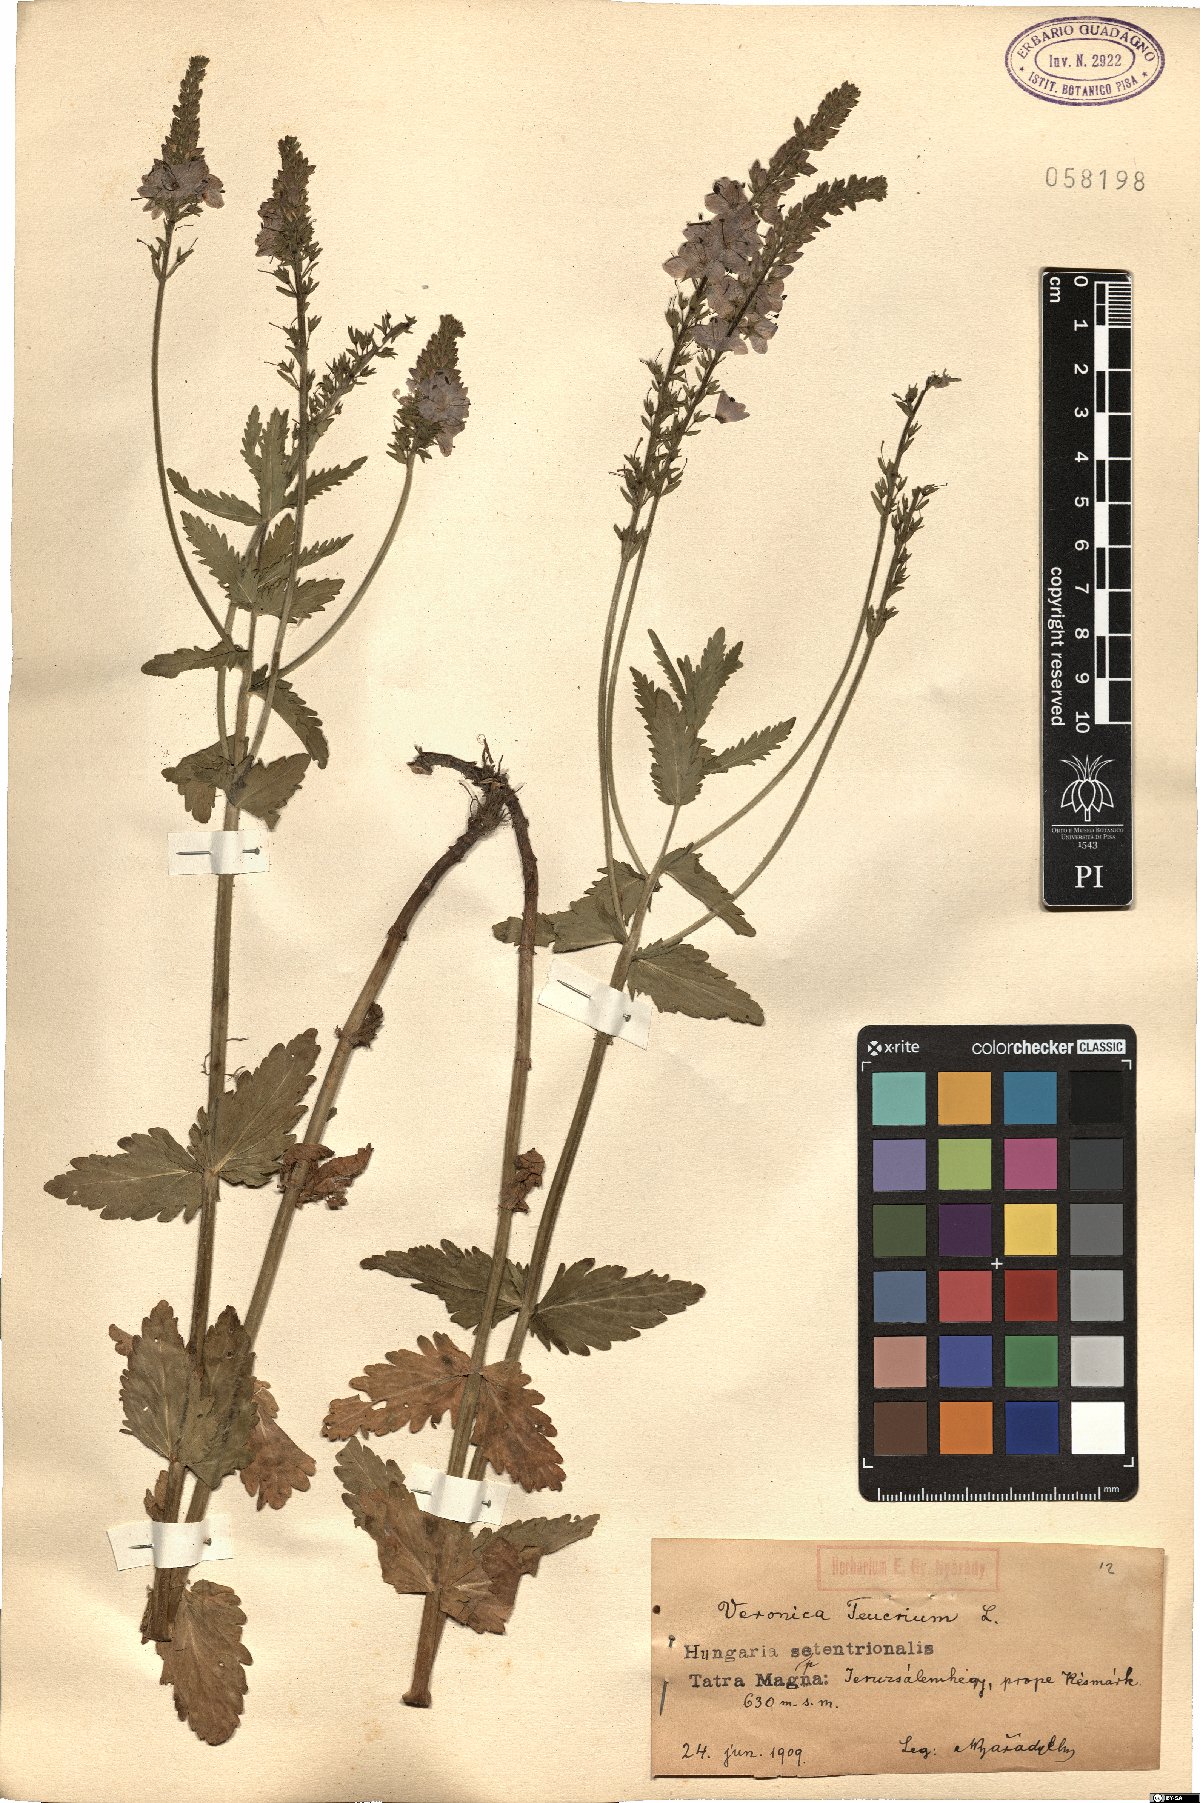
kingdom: Plantae
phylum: Tracheophyta
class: Magnoliopsida
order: Lamiales
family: Plantaginaceae
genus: Veronica
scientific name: Veronica teucrium
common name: Large speedwell
